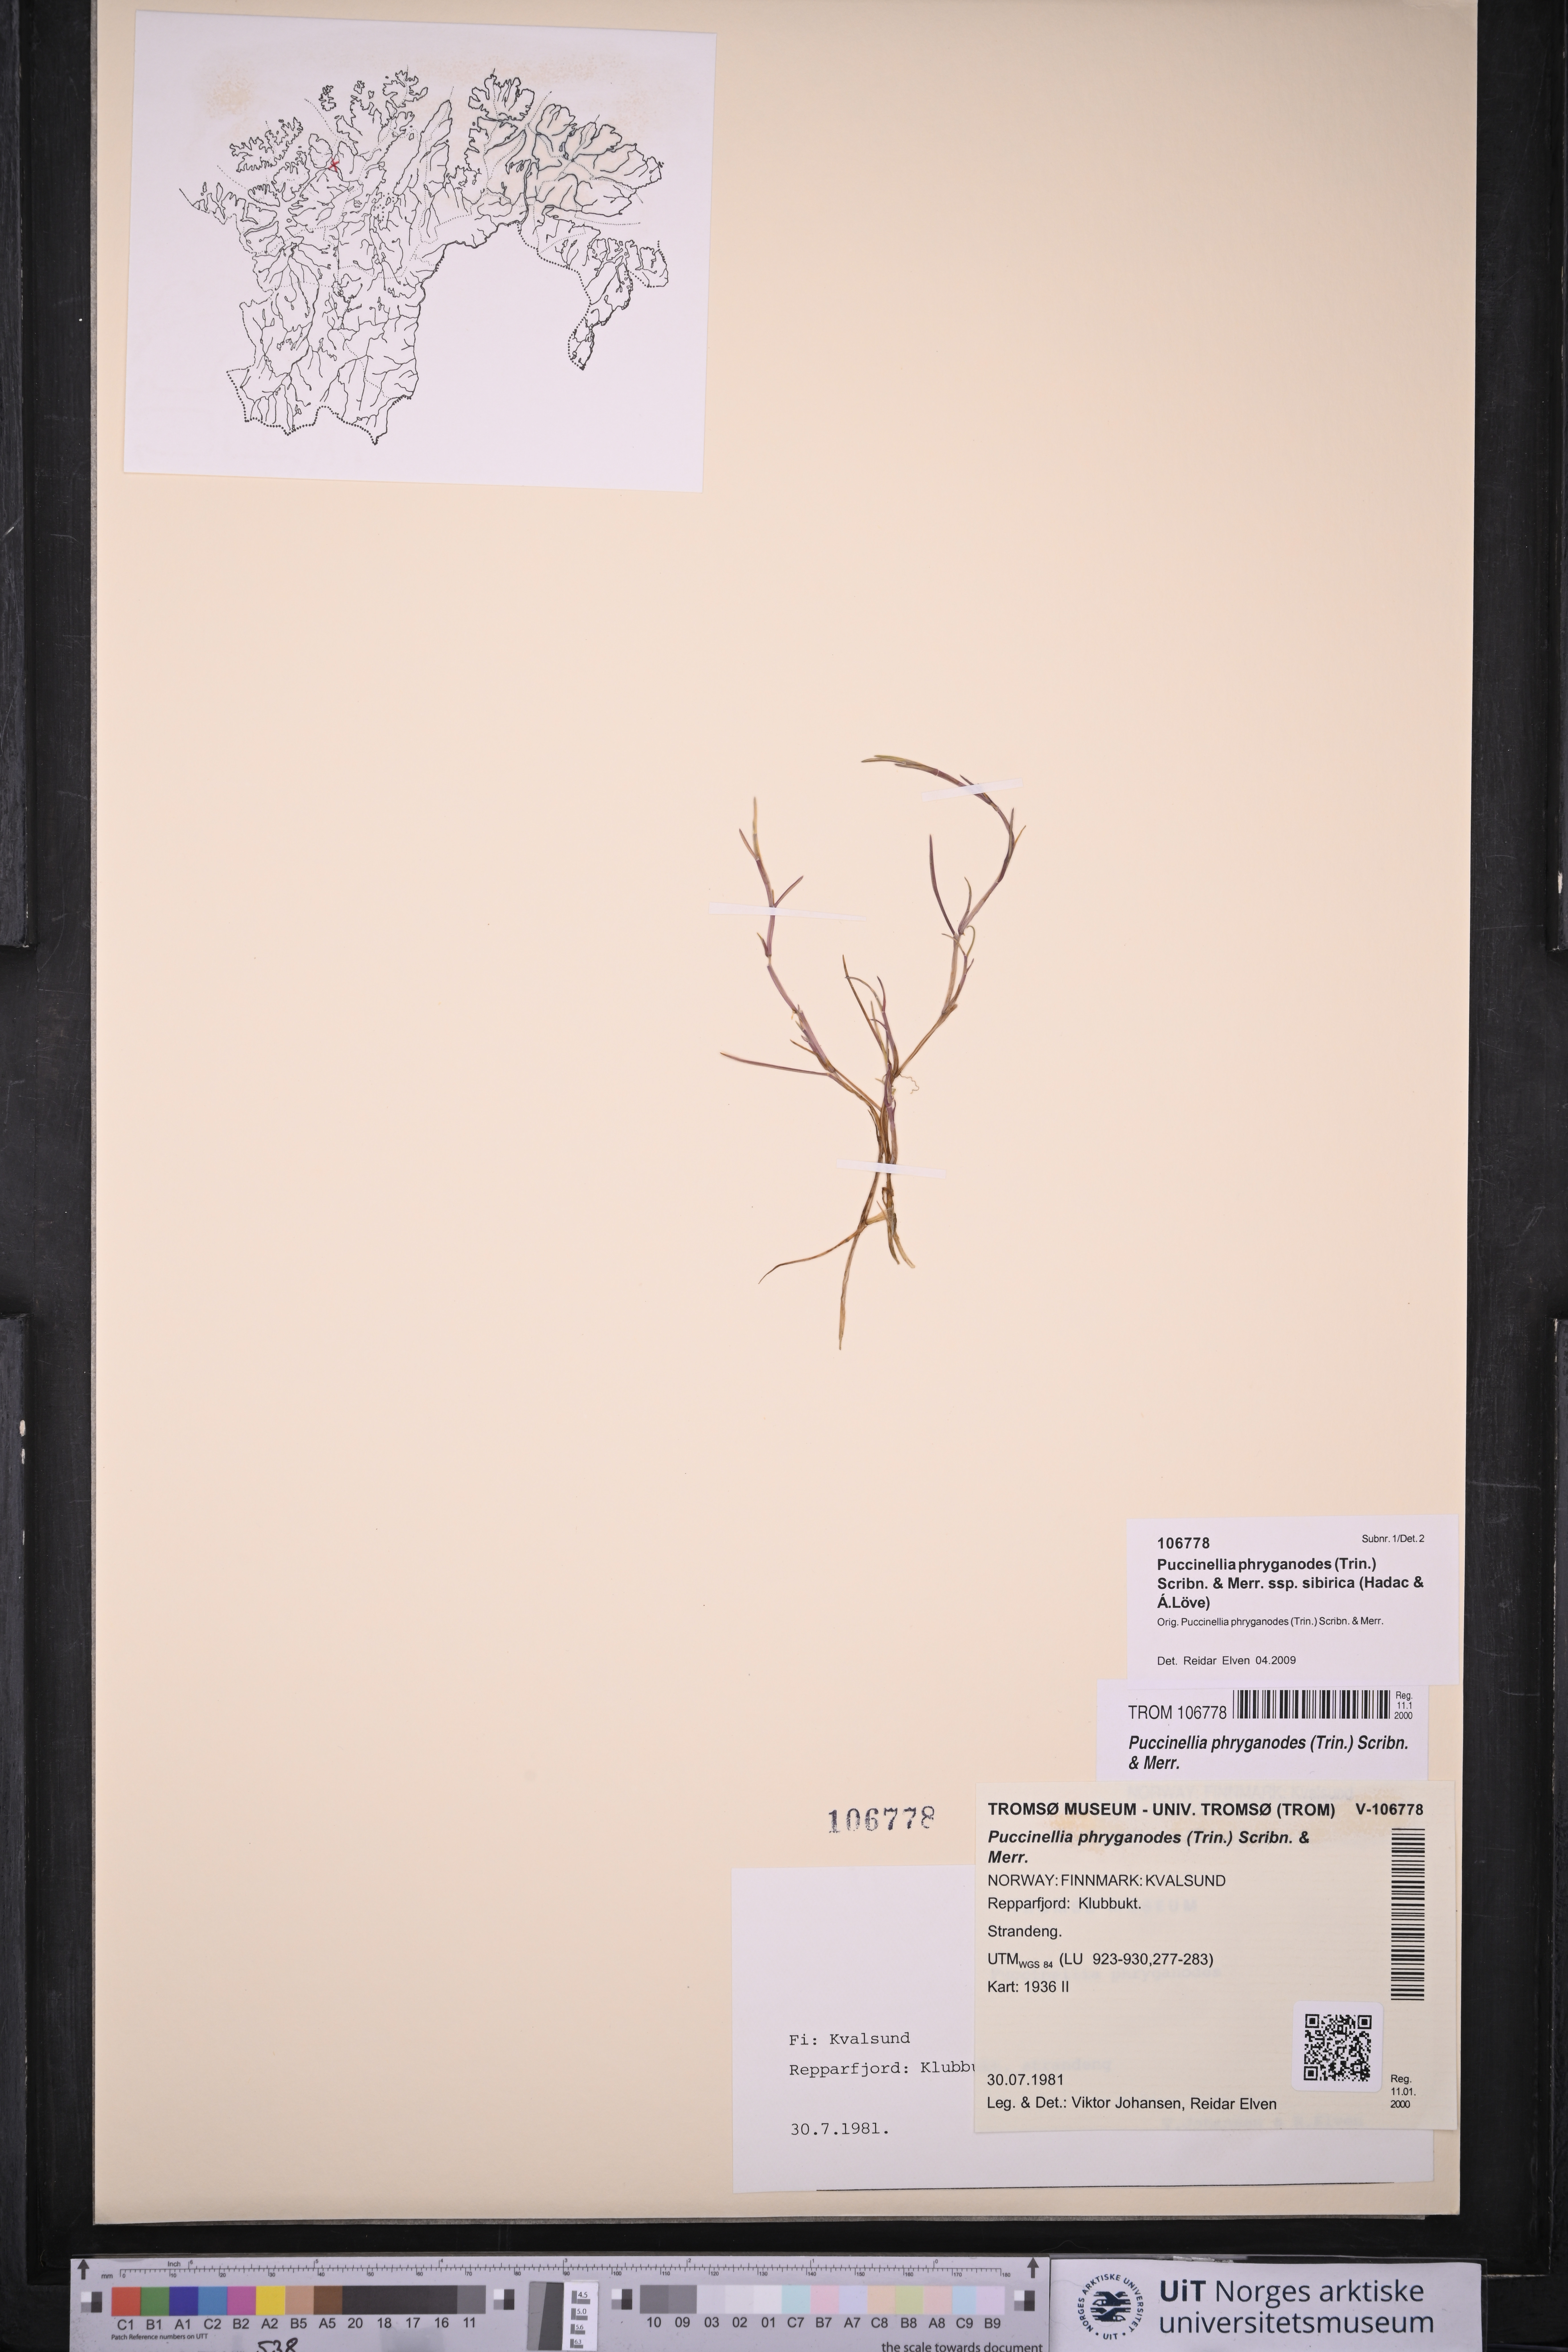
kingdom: Plantae
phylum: Tracheophyta
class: Liliopsida
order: Poales
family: Poaceae
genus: Puccinellia
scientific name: Puccinellia phryganodes
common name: Creeping alkaligrass
